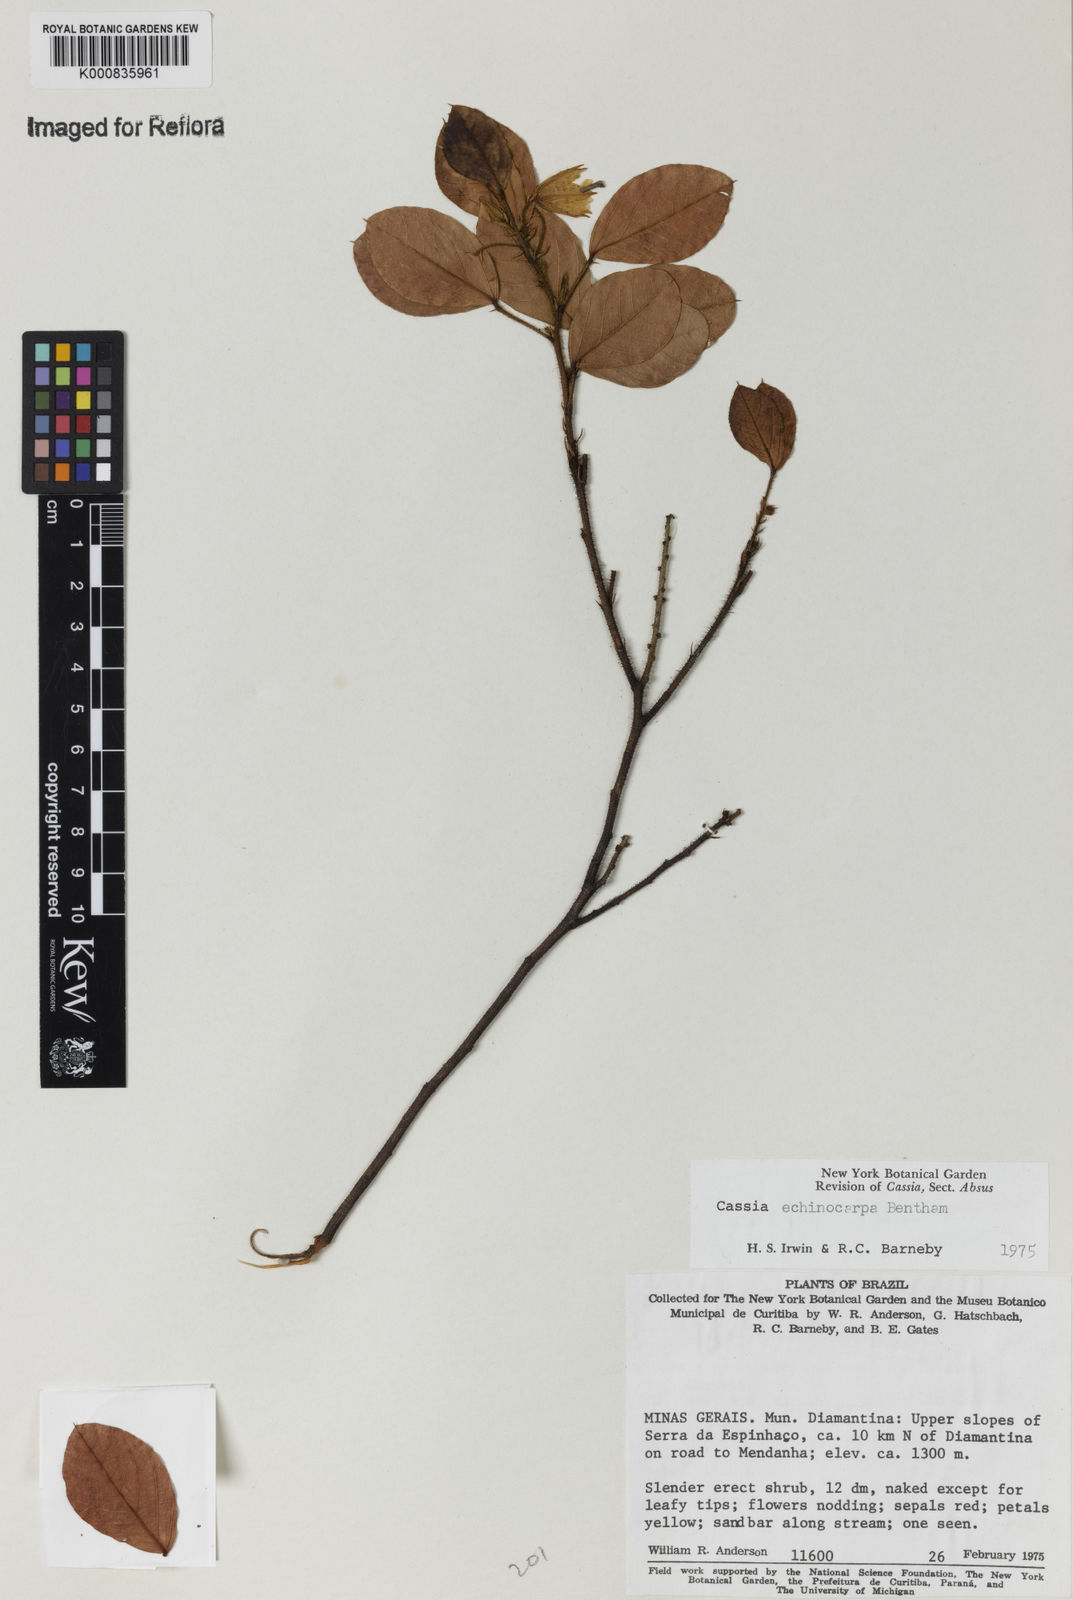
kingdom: Plantae
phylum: Tracheophyta
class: Magnoliopsida
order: Fabales
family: Fabaceae
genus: Chamaecrista
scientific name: Chamaecrista echinocarpa
